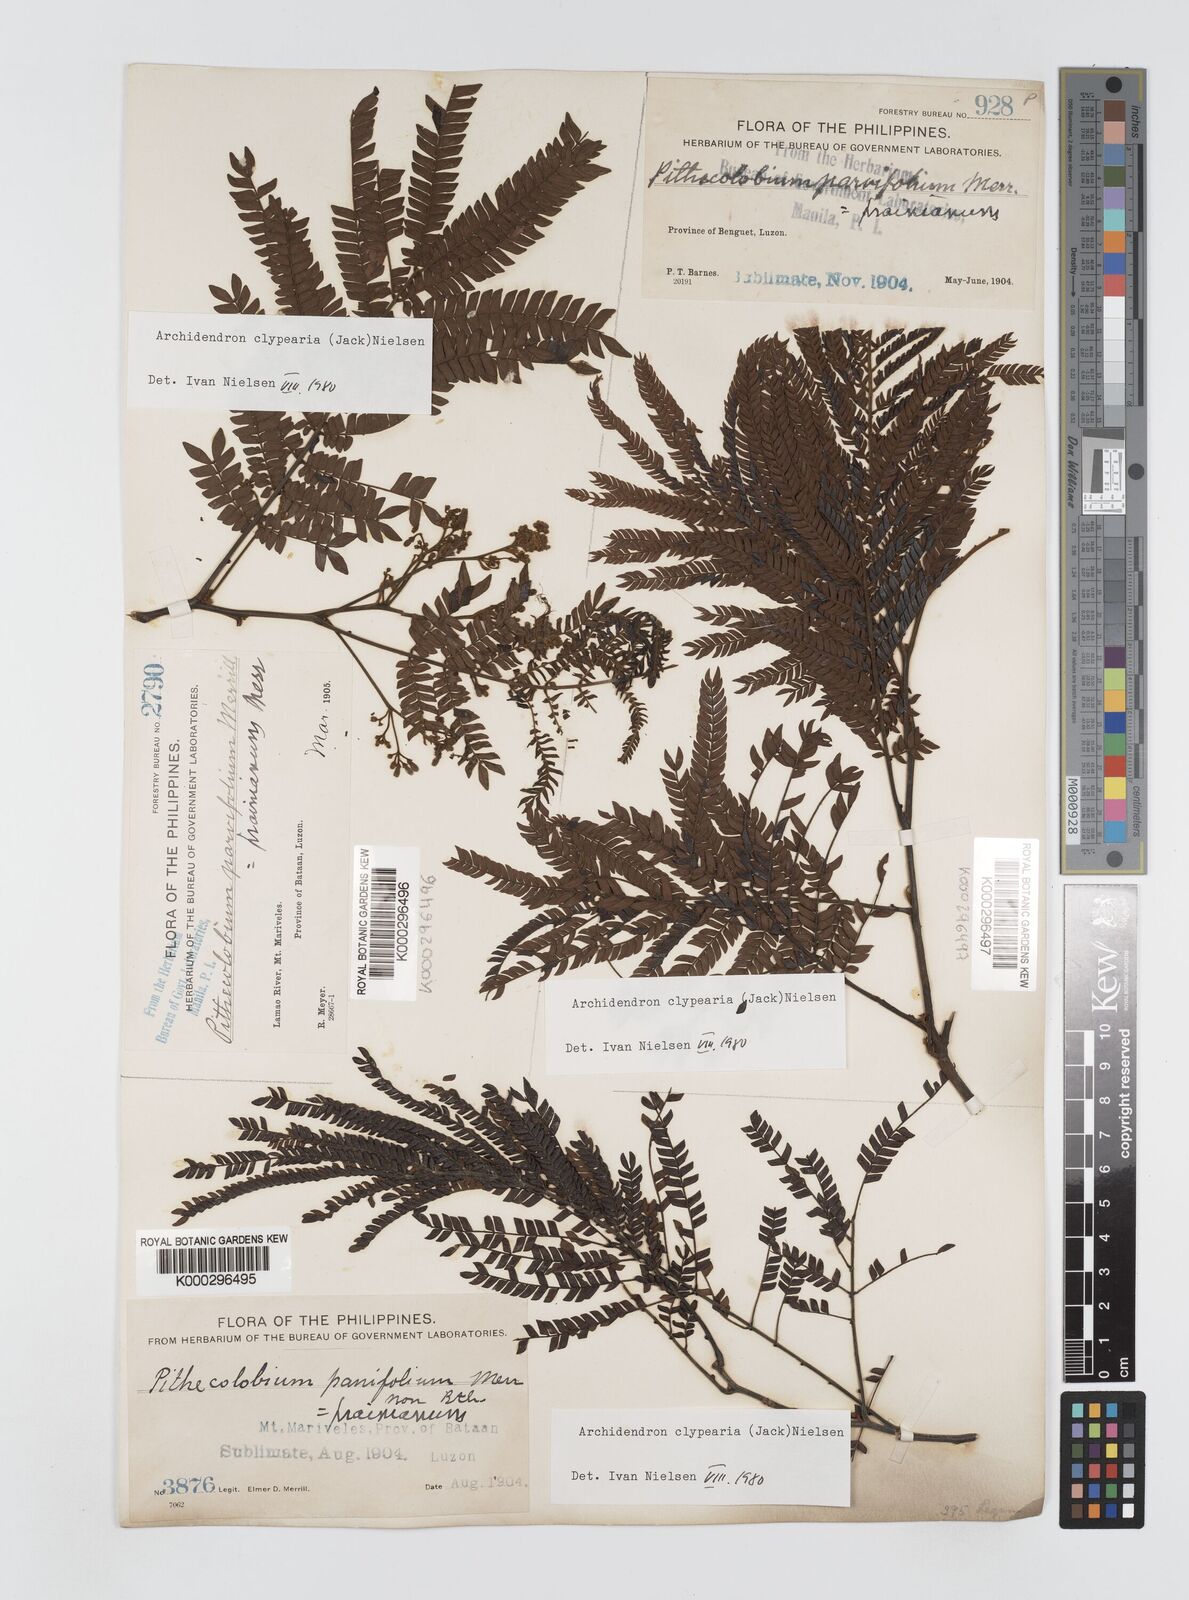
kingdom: Plantae
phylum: Tracheophyta
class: Magnoliopsida
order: Fabales
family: Fabaceae
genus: Archidendron
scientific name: Archidendron clypearia
